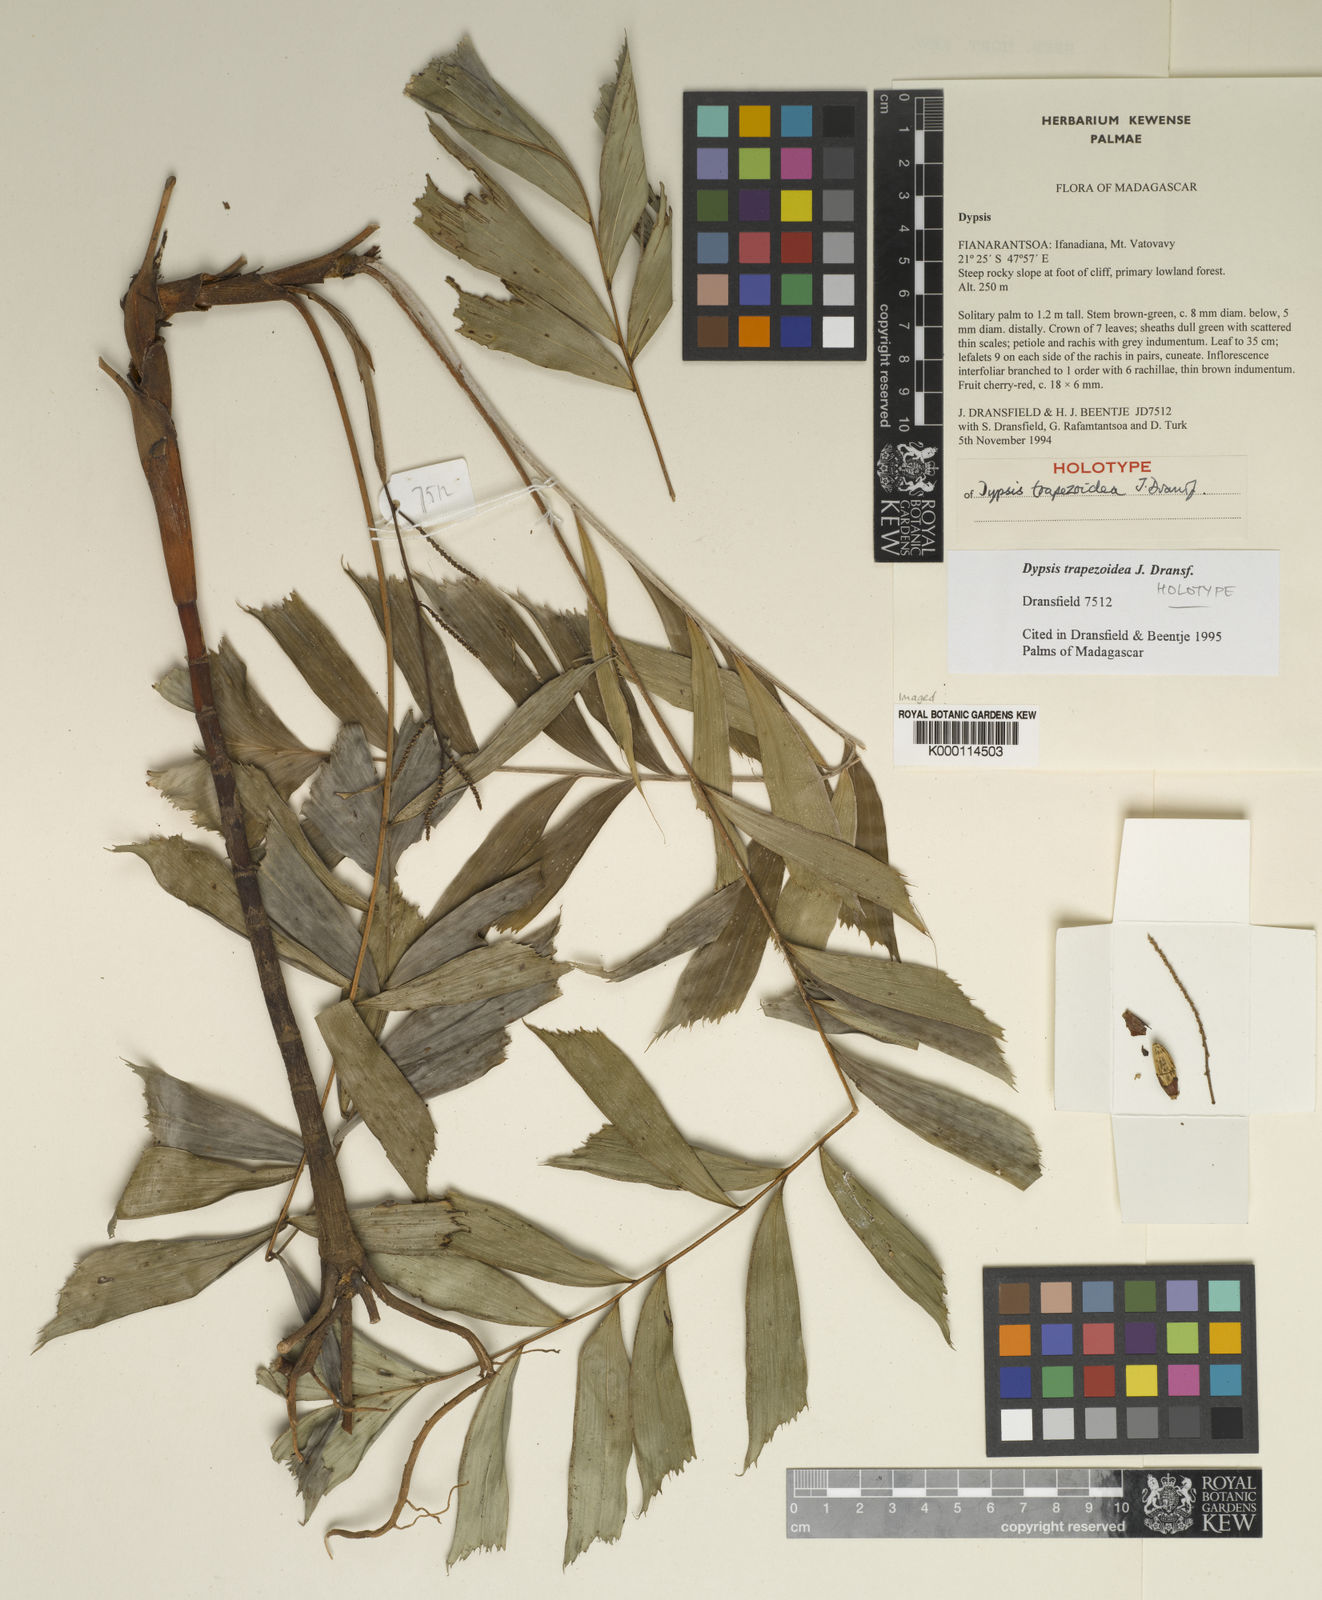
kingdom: Plantae
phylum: Tracheophyta
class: Liliopsida
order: Arecales
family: Arecaceae
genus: Dypsis
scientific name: Dypsis trapezoidea
